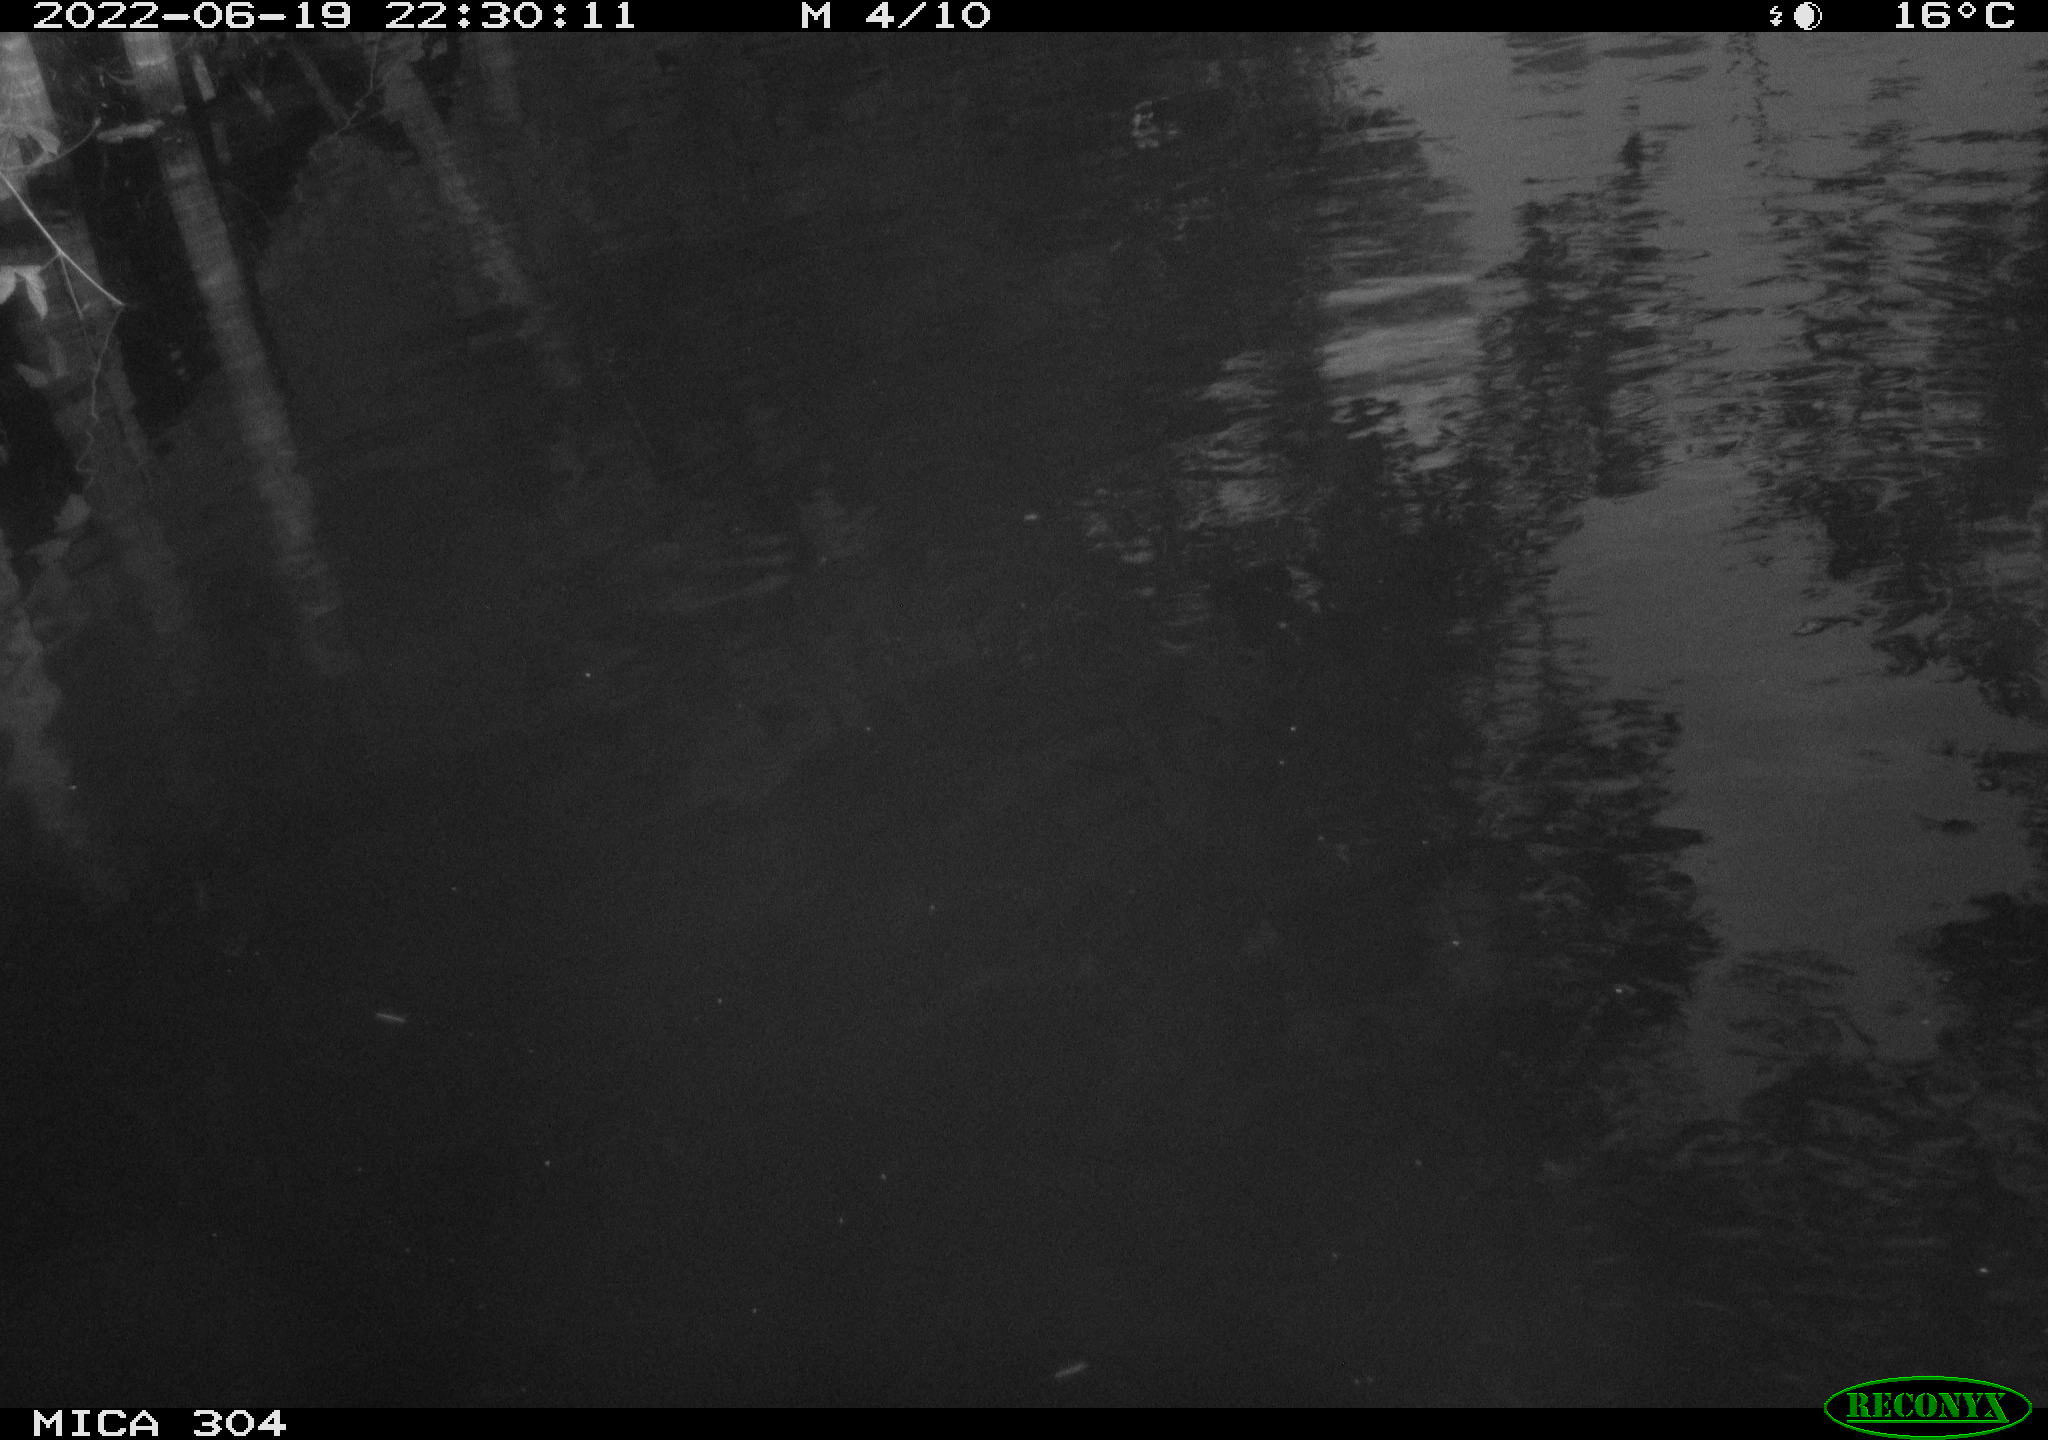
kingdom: Animalia
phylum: Chordata
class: Aves
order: Anseriformes
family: Anatidae
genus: Anas
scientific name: Anas platyrhynchos
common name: Mallard
